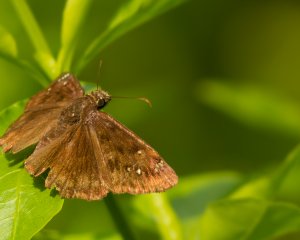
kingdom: Animalia
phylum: Arthropoda
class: Insecta
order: Lepidoptera
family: Hesperiidae
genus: Gesta
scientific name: Gesta
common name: Horace's Duskywing
